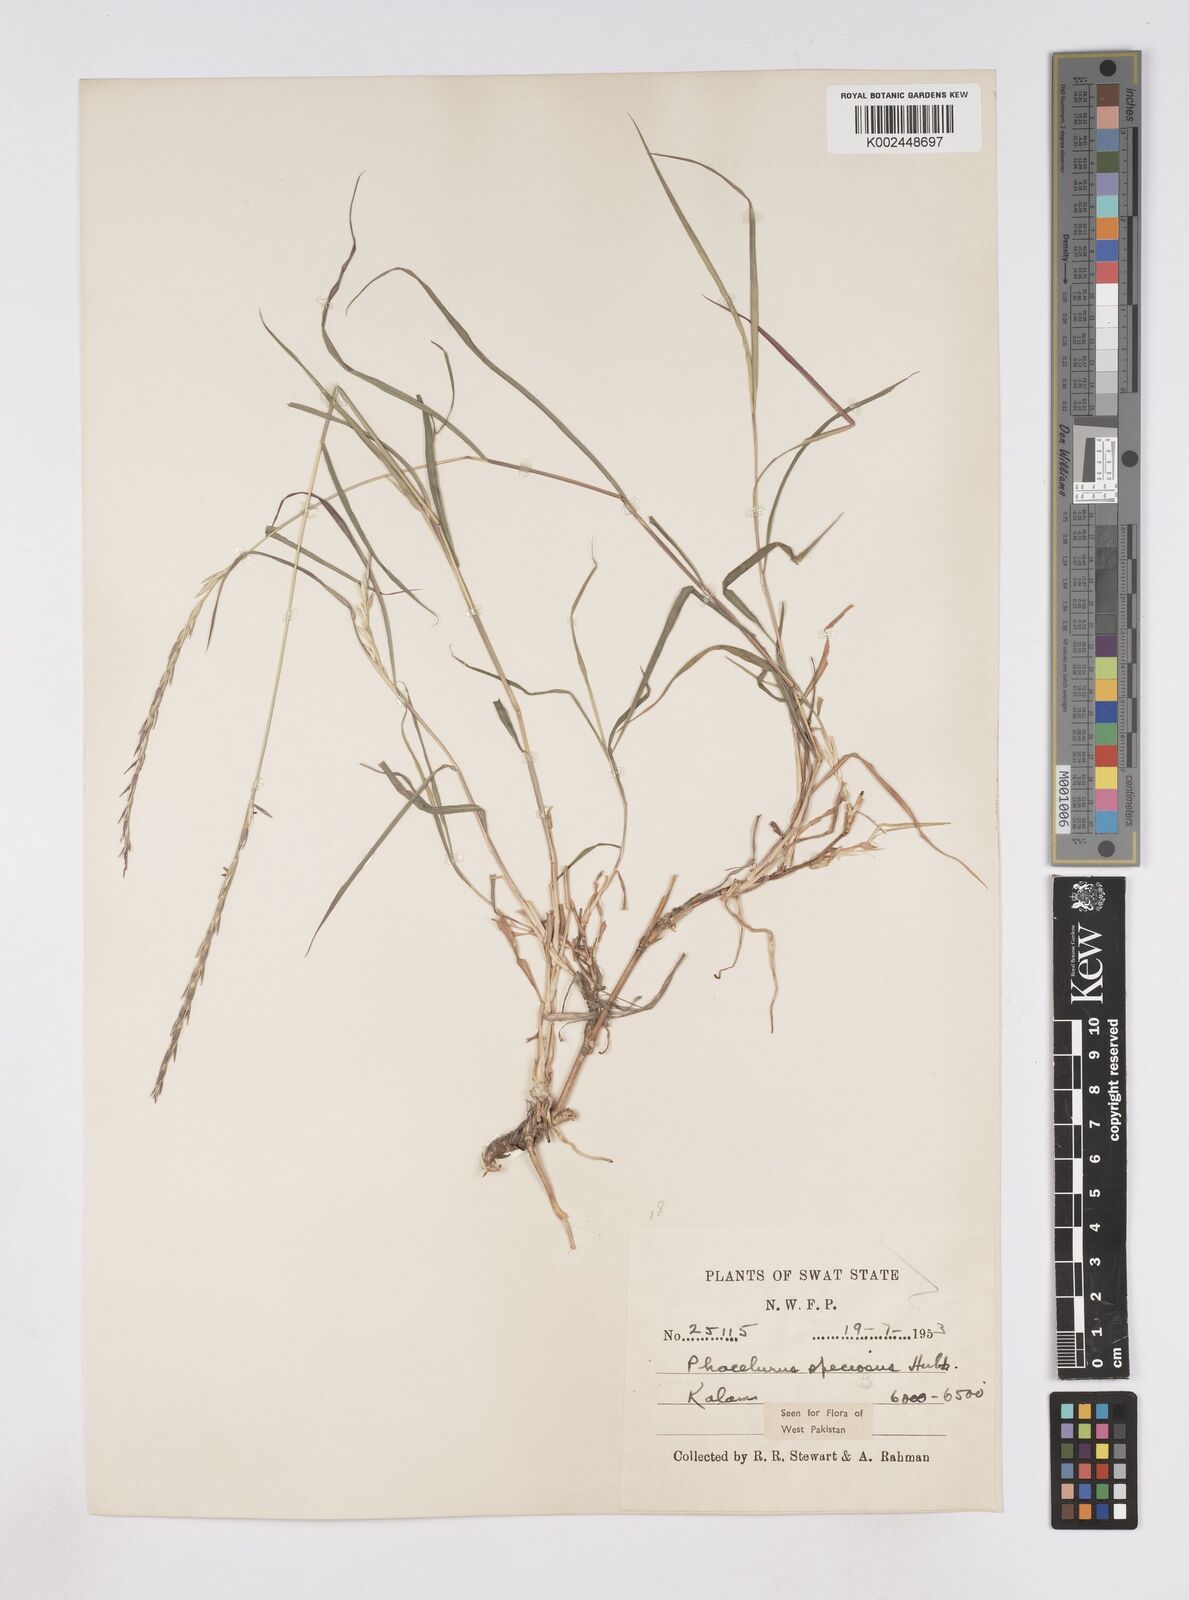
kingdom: Plantae
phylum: Tracheophyta
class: Liliopsida
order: Poales
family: Poaceae
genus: Phacelurus
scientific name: Phacelurus speciosus
